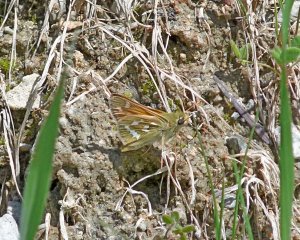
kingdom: Animalia
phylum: Arthropoda
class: Insecta
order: Lepidoptera
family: Hesperiidae
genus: Hesperia
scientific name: Hesperia comma
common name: Western Branded Skipper
